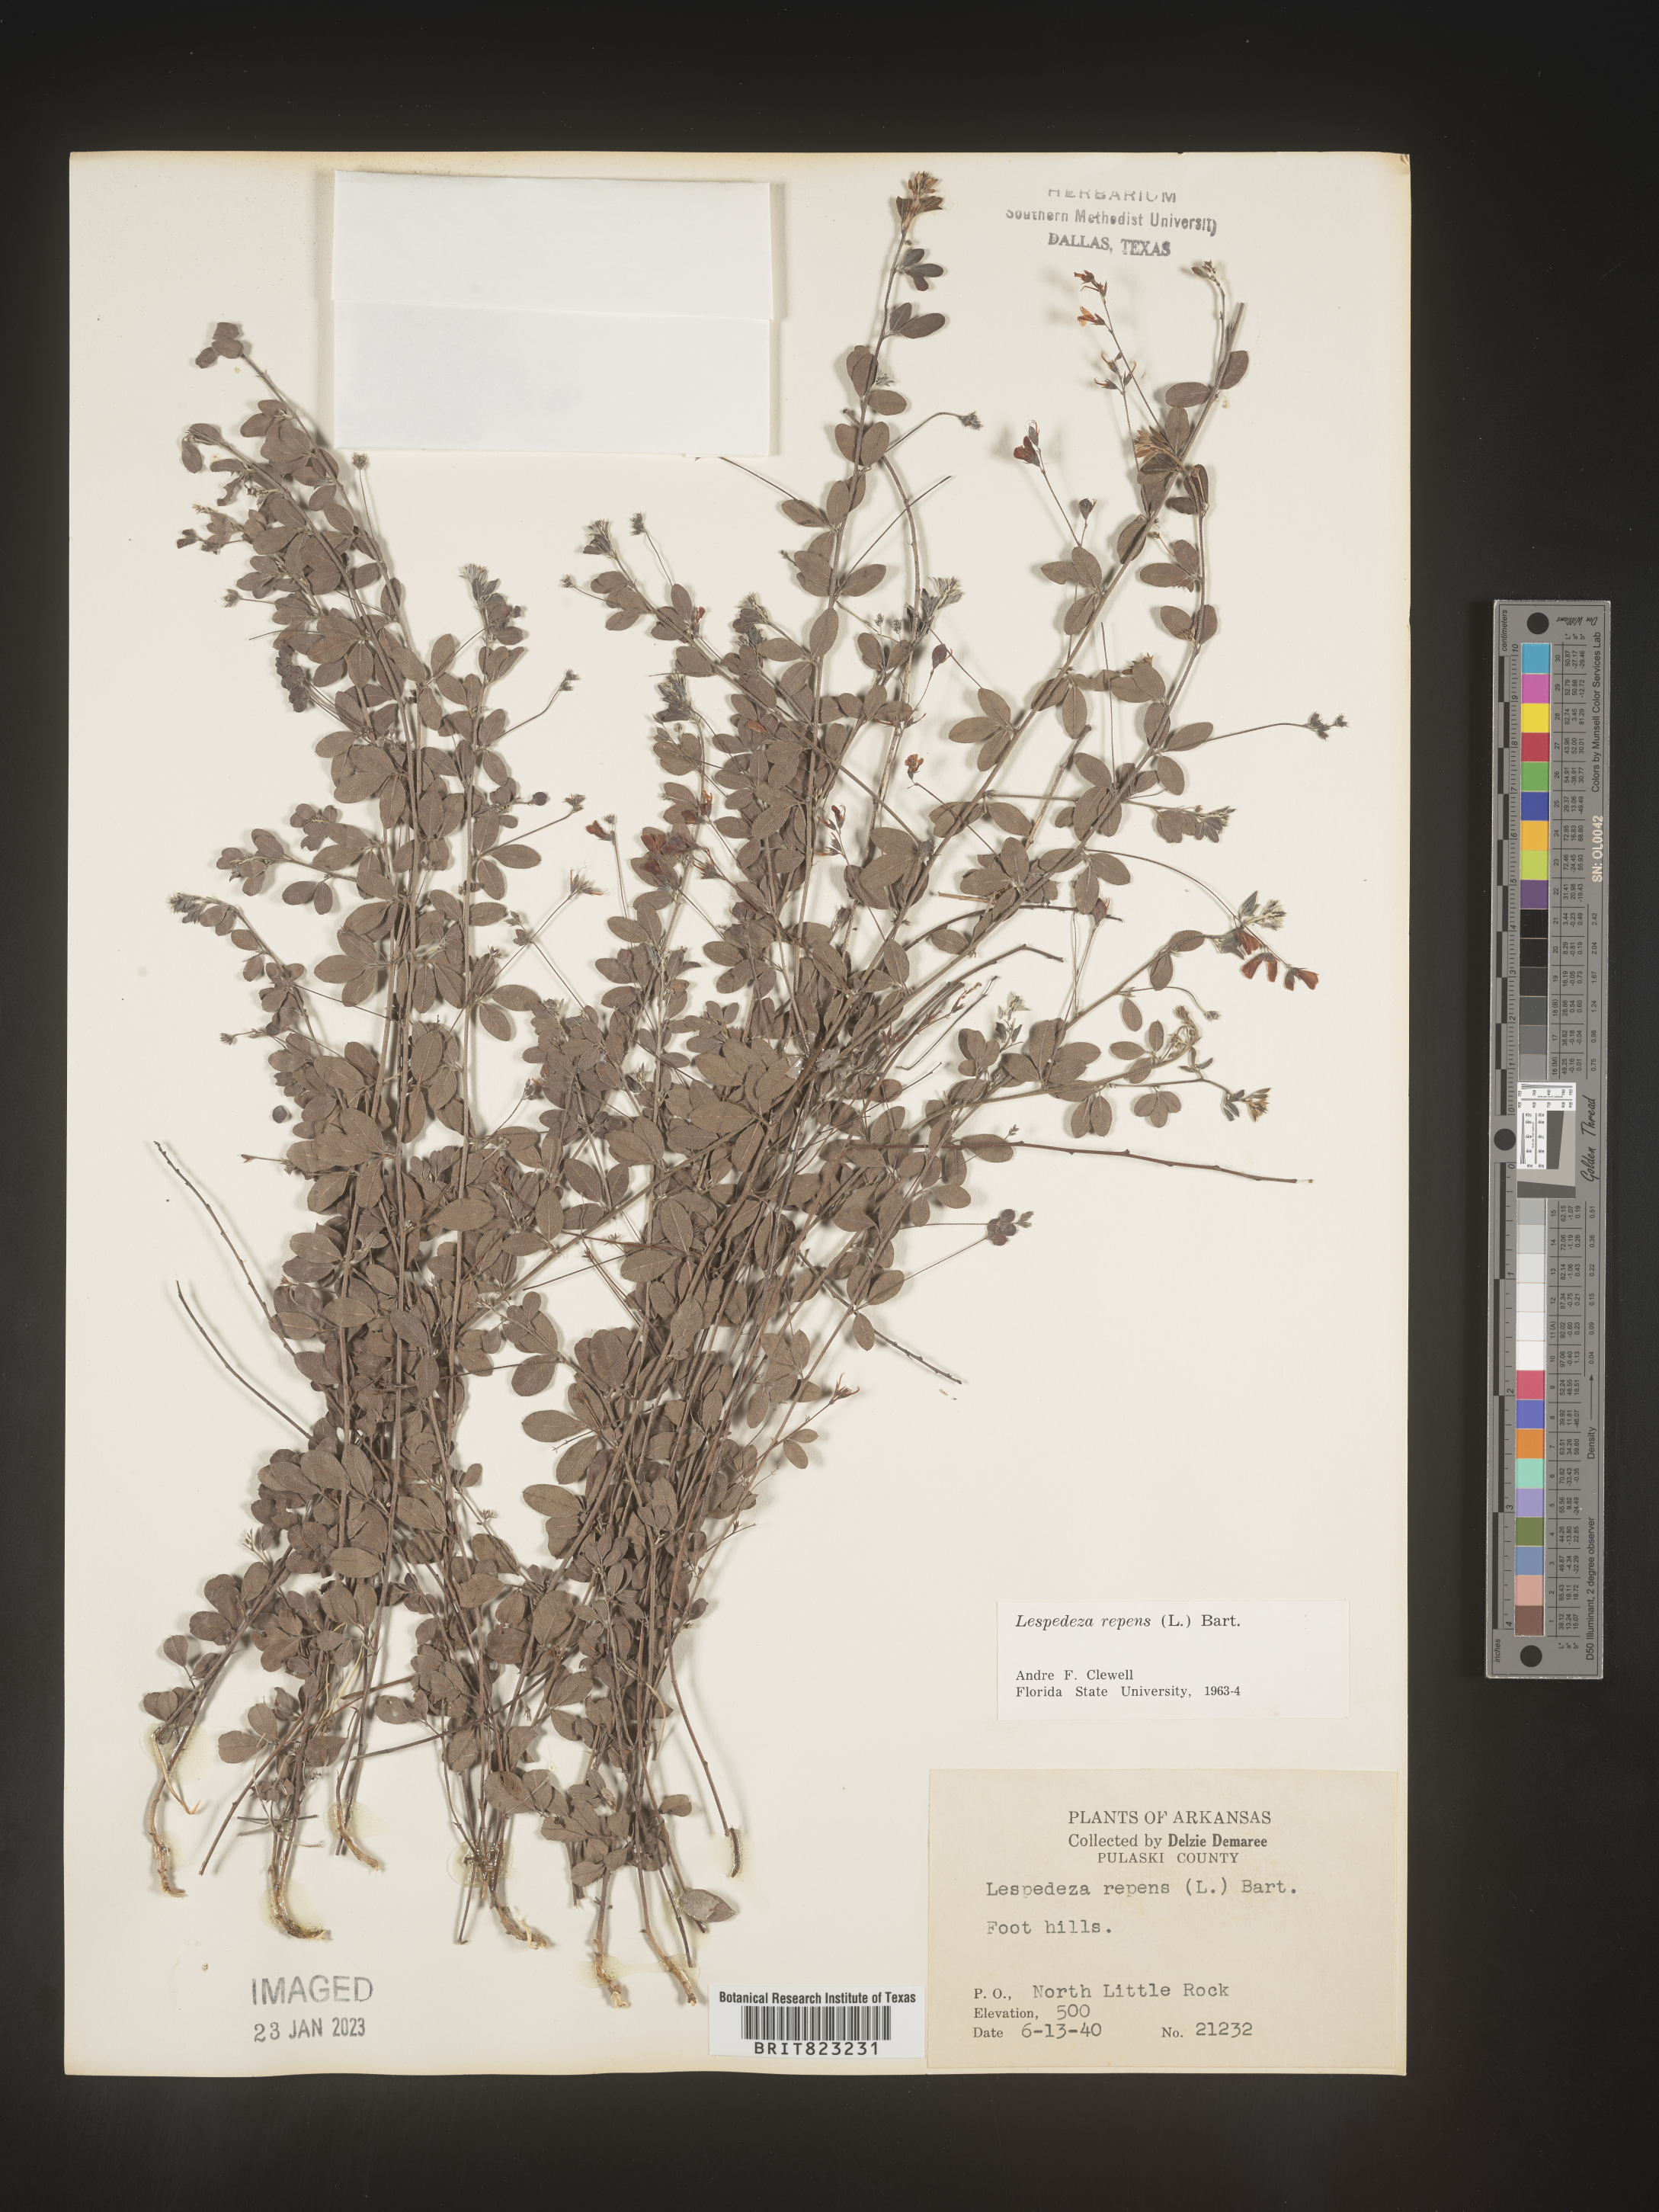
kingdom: Plantae
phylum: Tracheophyta
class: Magnoliopsida
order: Fabales
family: Fabaceae
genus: Lespedeza
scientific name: Lespedeza repens
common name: Creeping bush-clover
